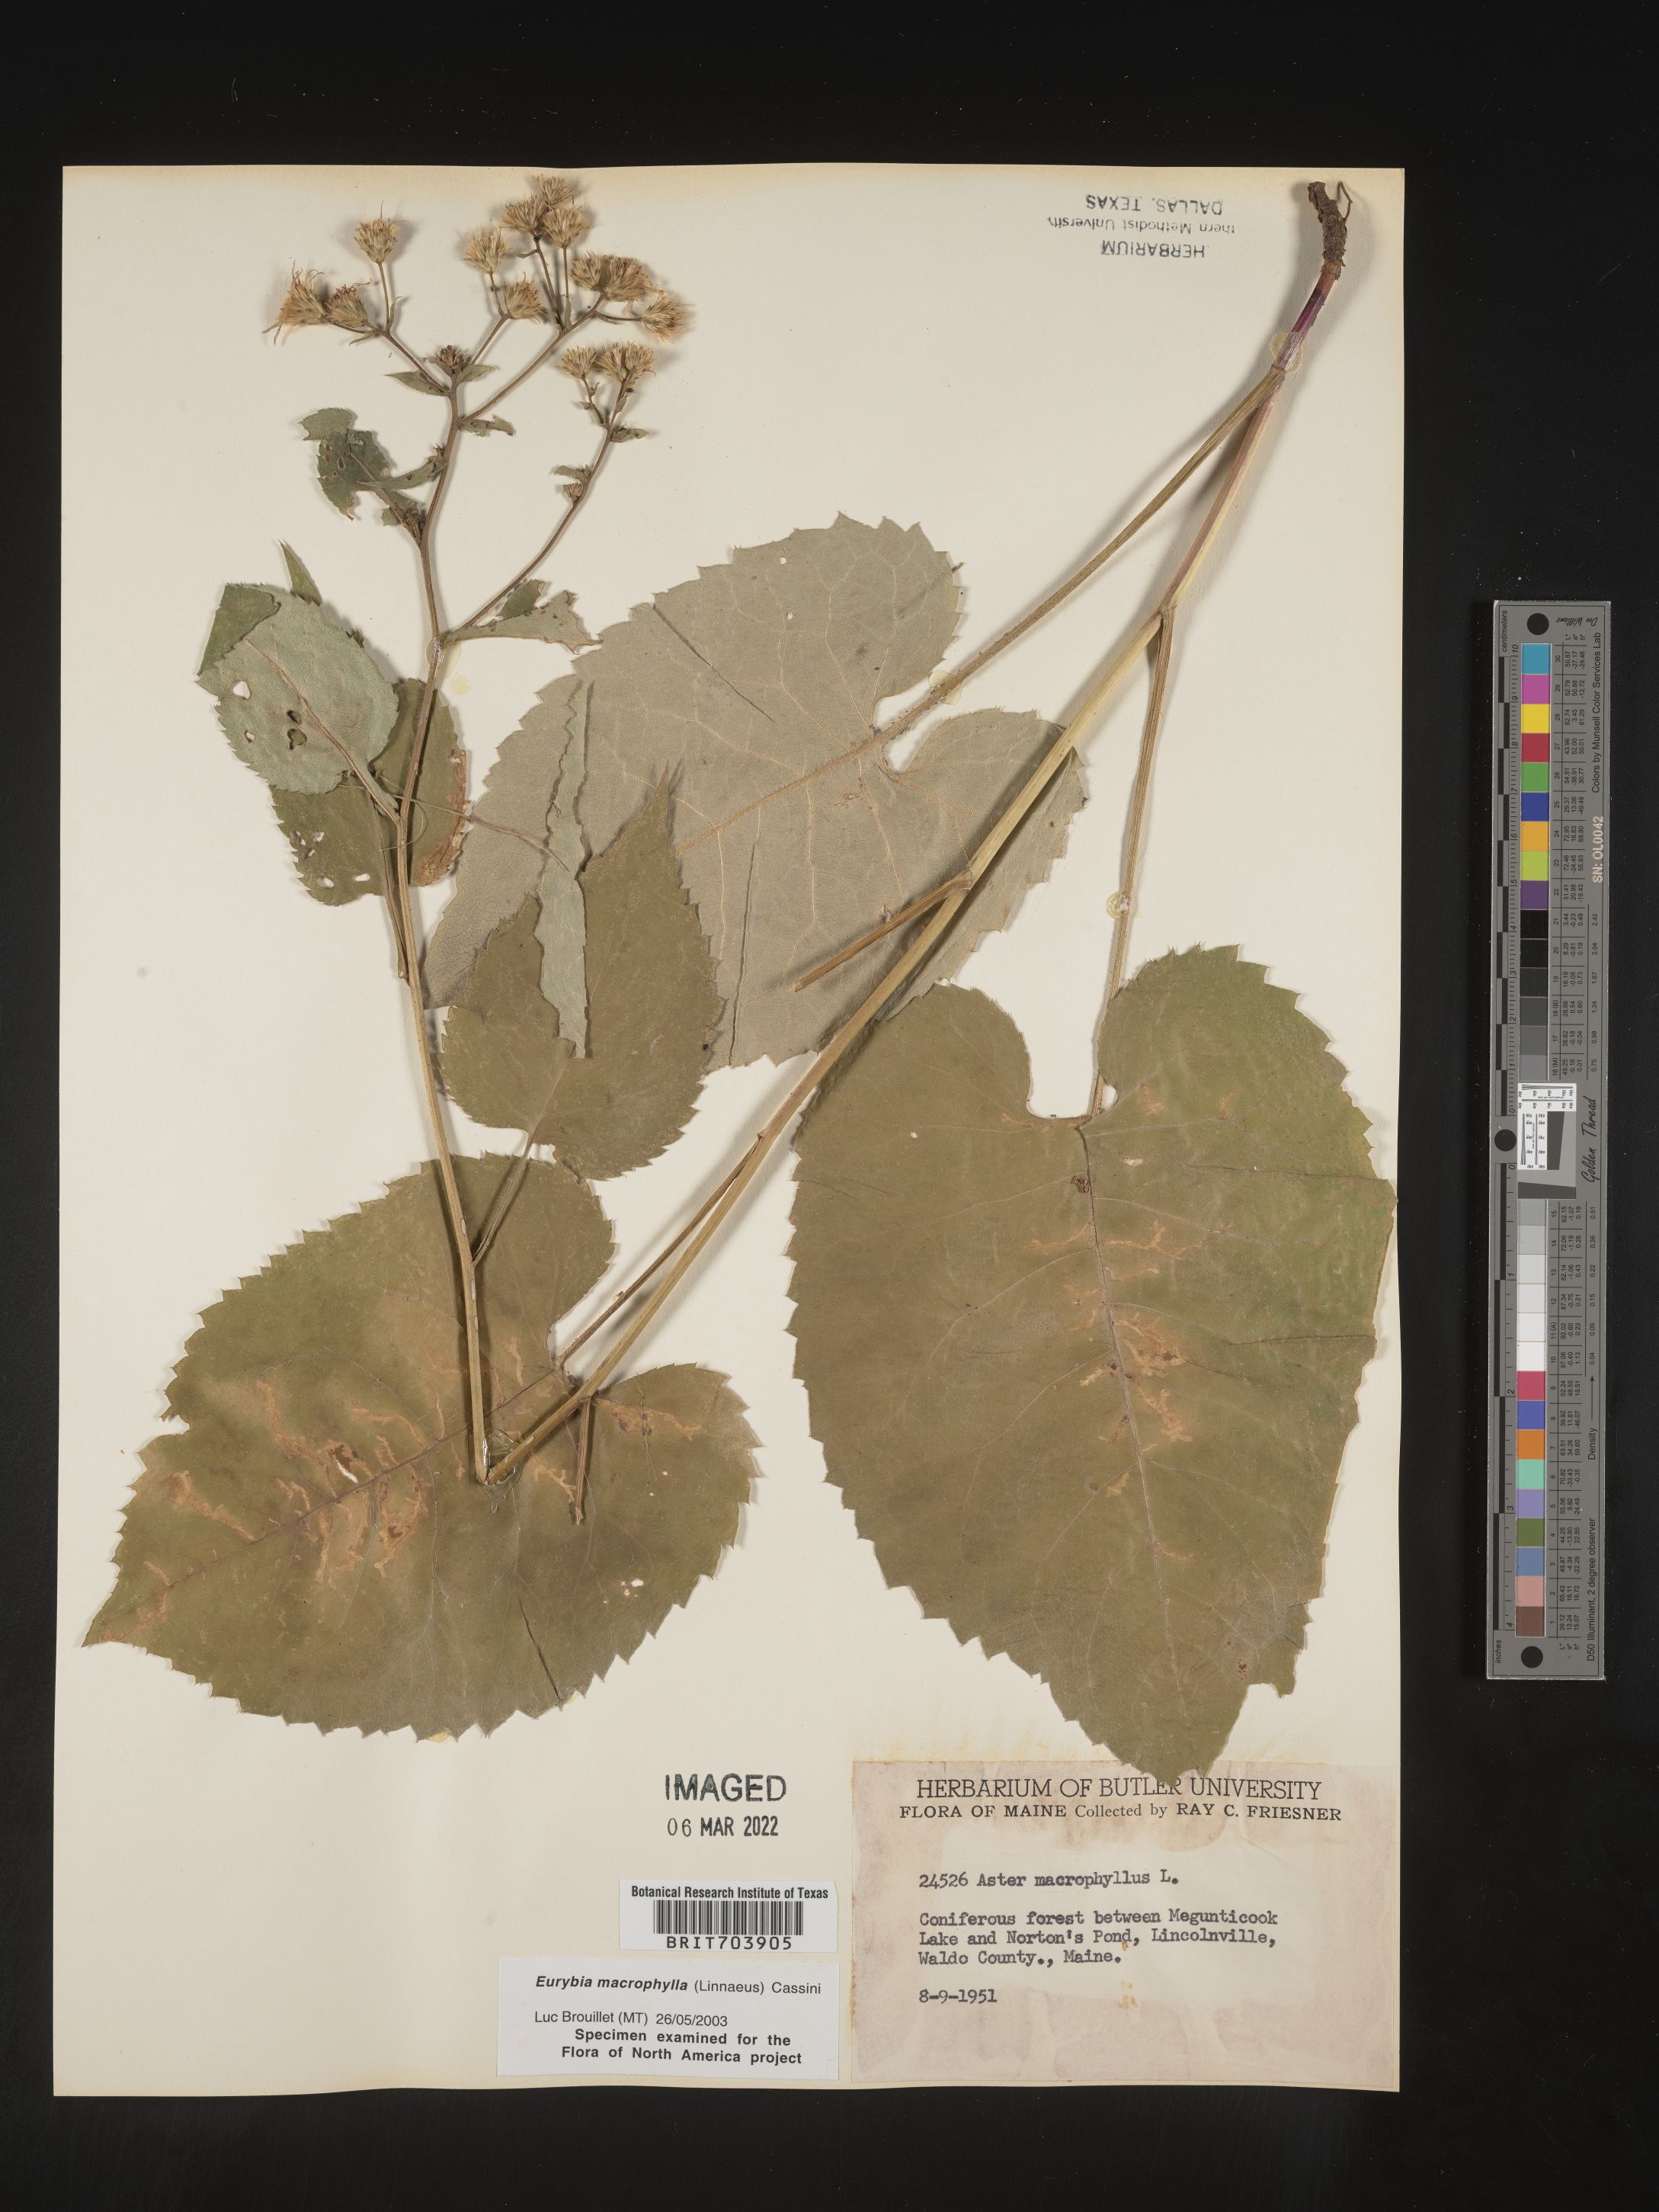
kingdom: Plantae
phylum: Tracheophyta
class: Magnoliopsida
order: Asterales
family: Asteraceae
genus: Eurybia
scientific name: Eurybia macrophylla
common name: Big-leaved aster
